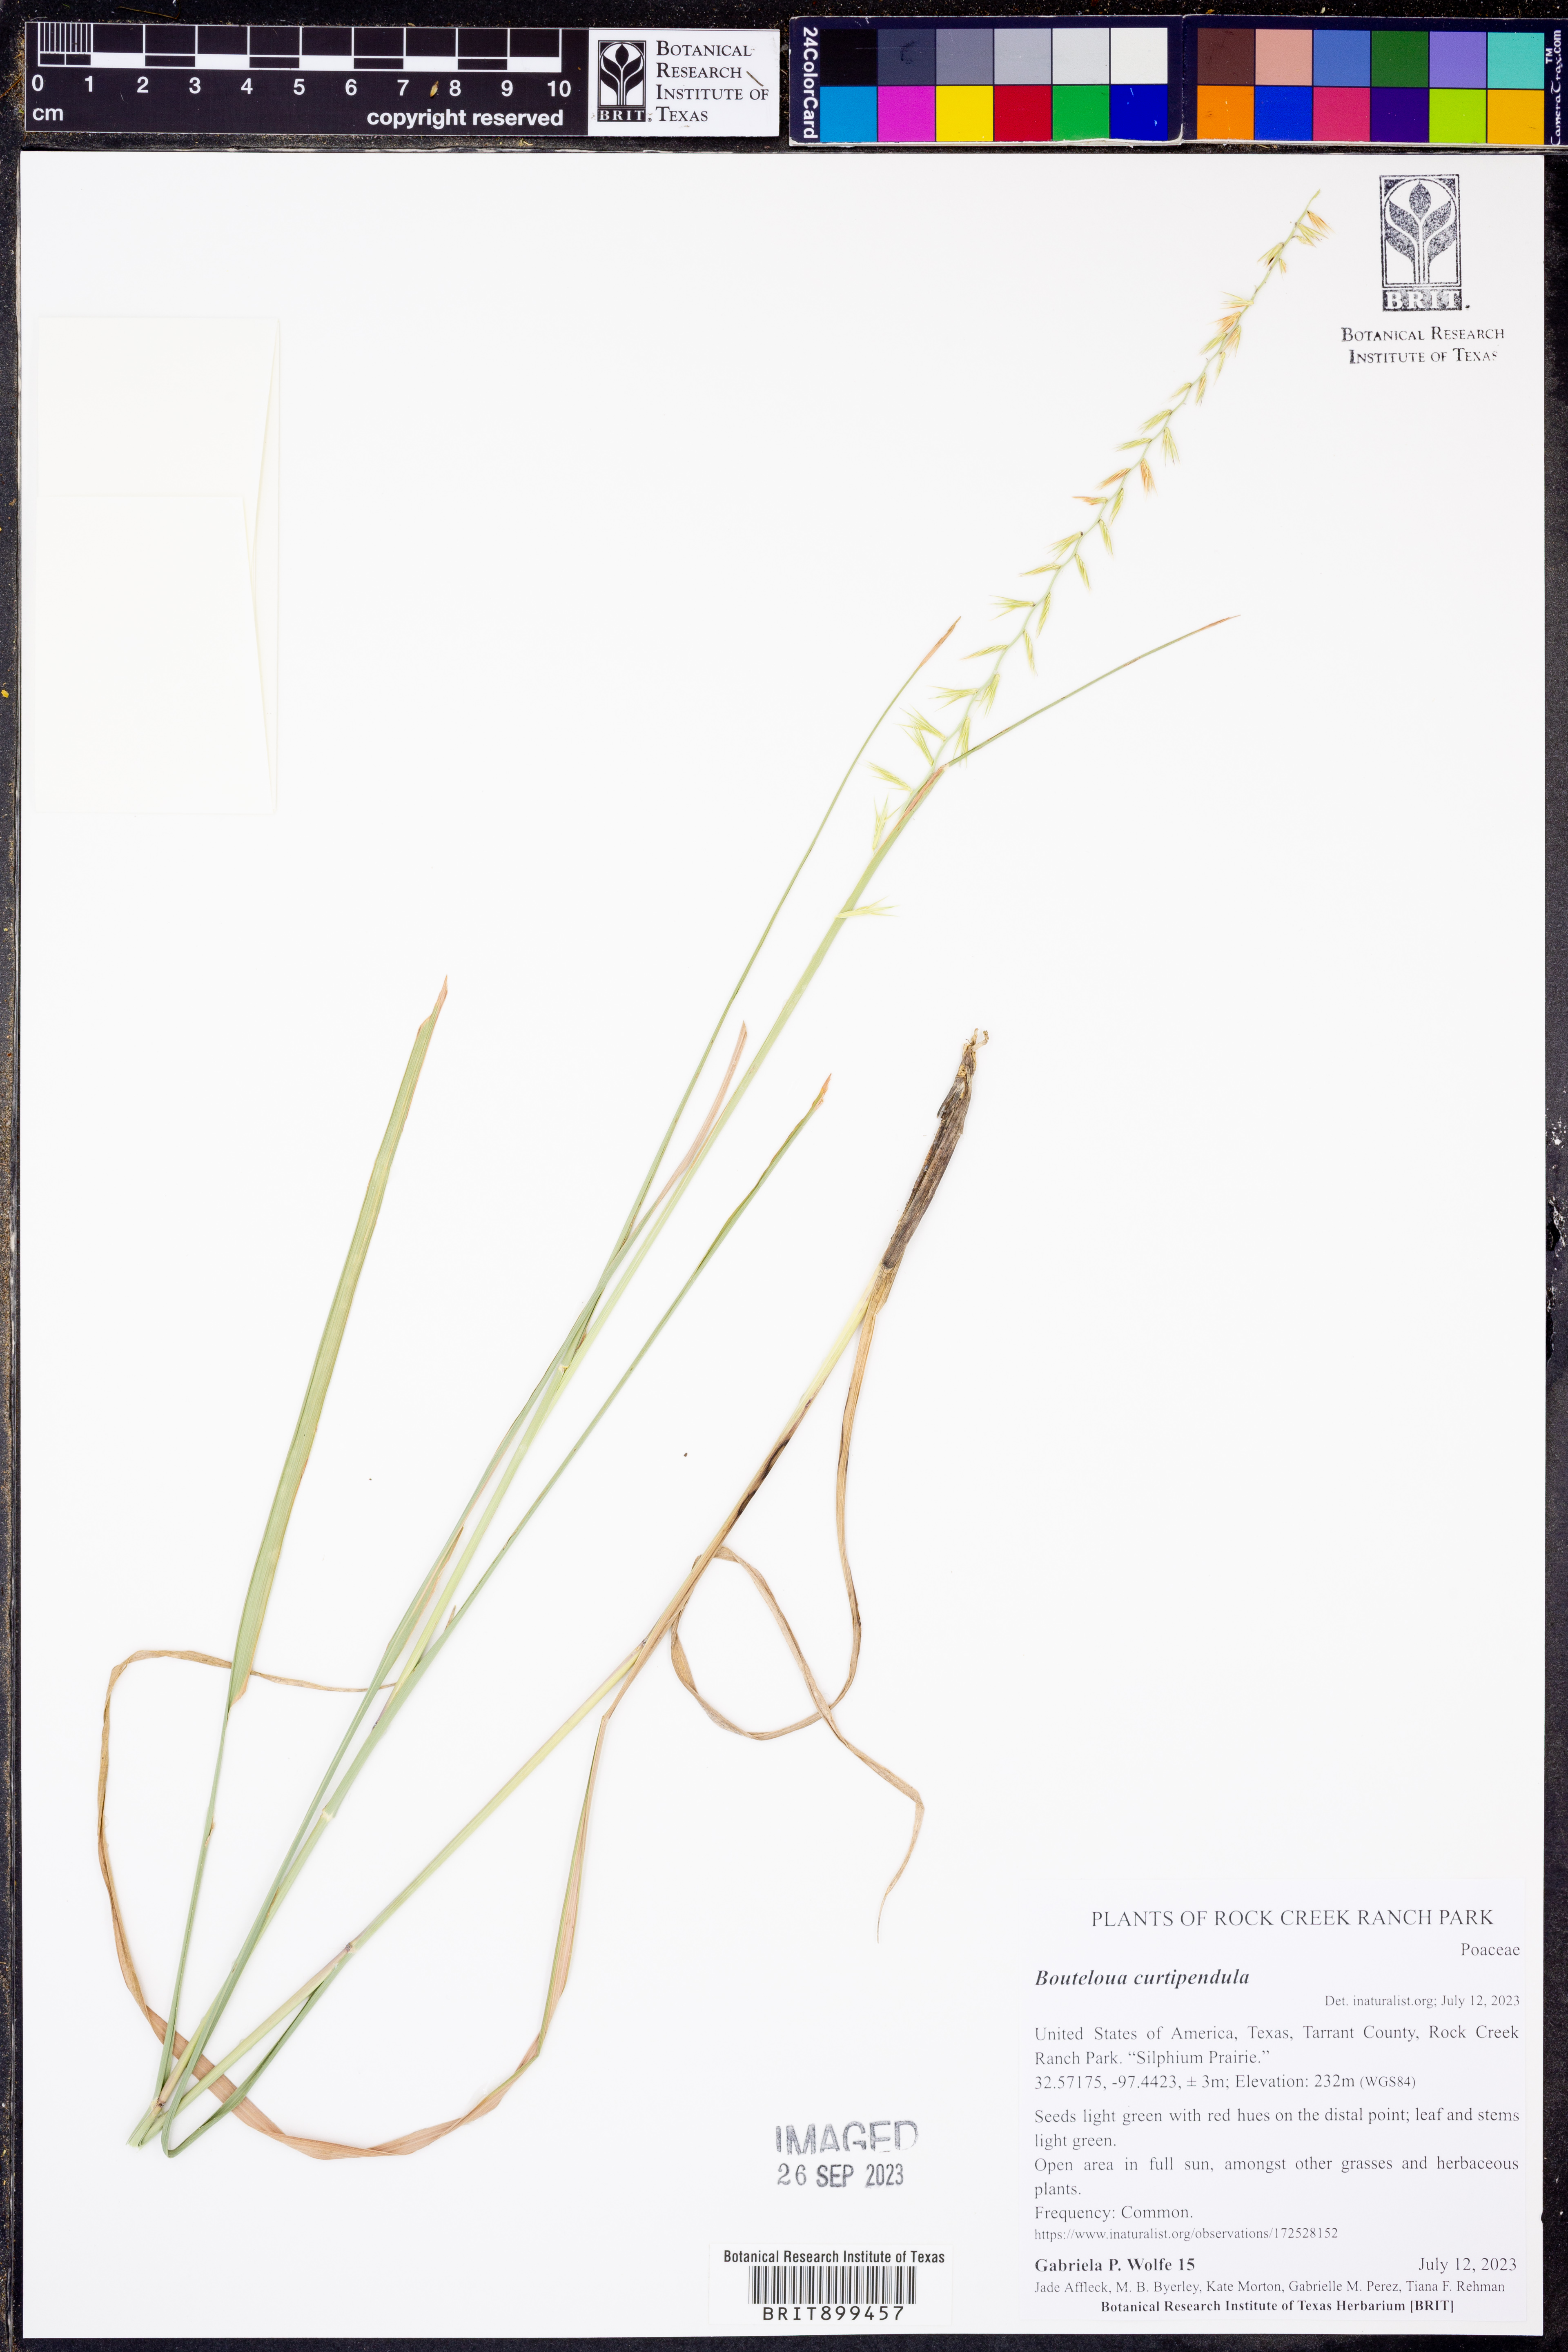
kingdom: Plantae
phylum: Tracheophyta
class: Liliopsida
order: Poales
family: Poaceae
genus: Bouteloua
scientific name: Bouteloua curtipendula
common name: Side-oats grama
